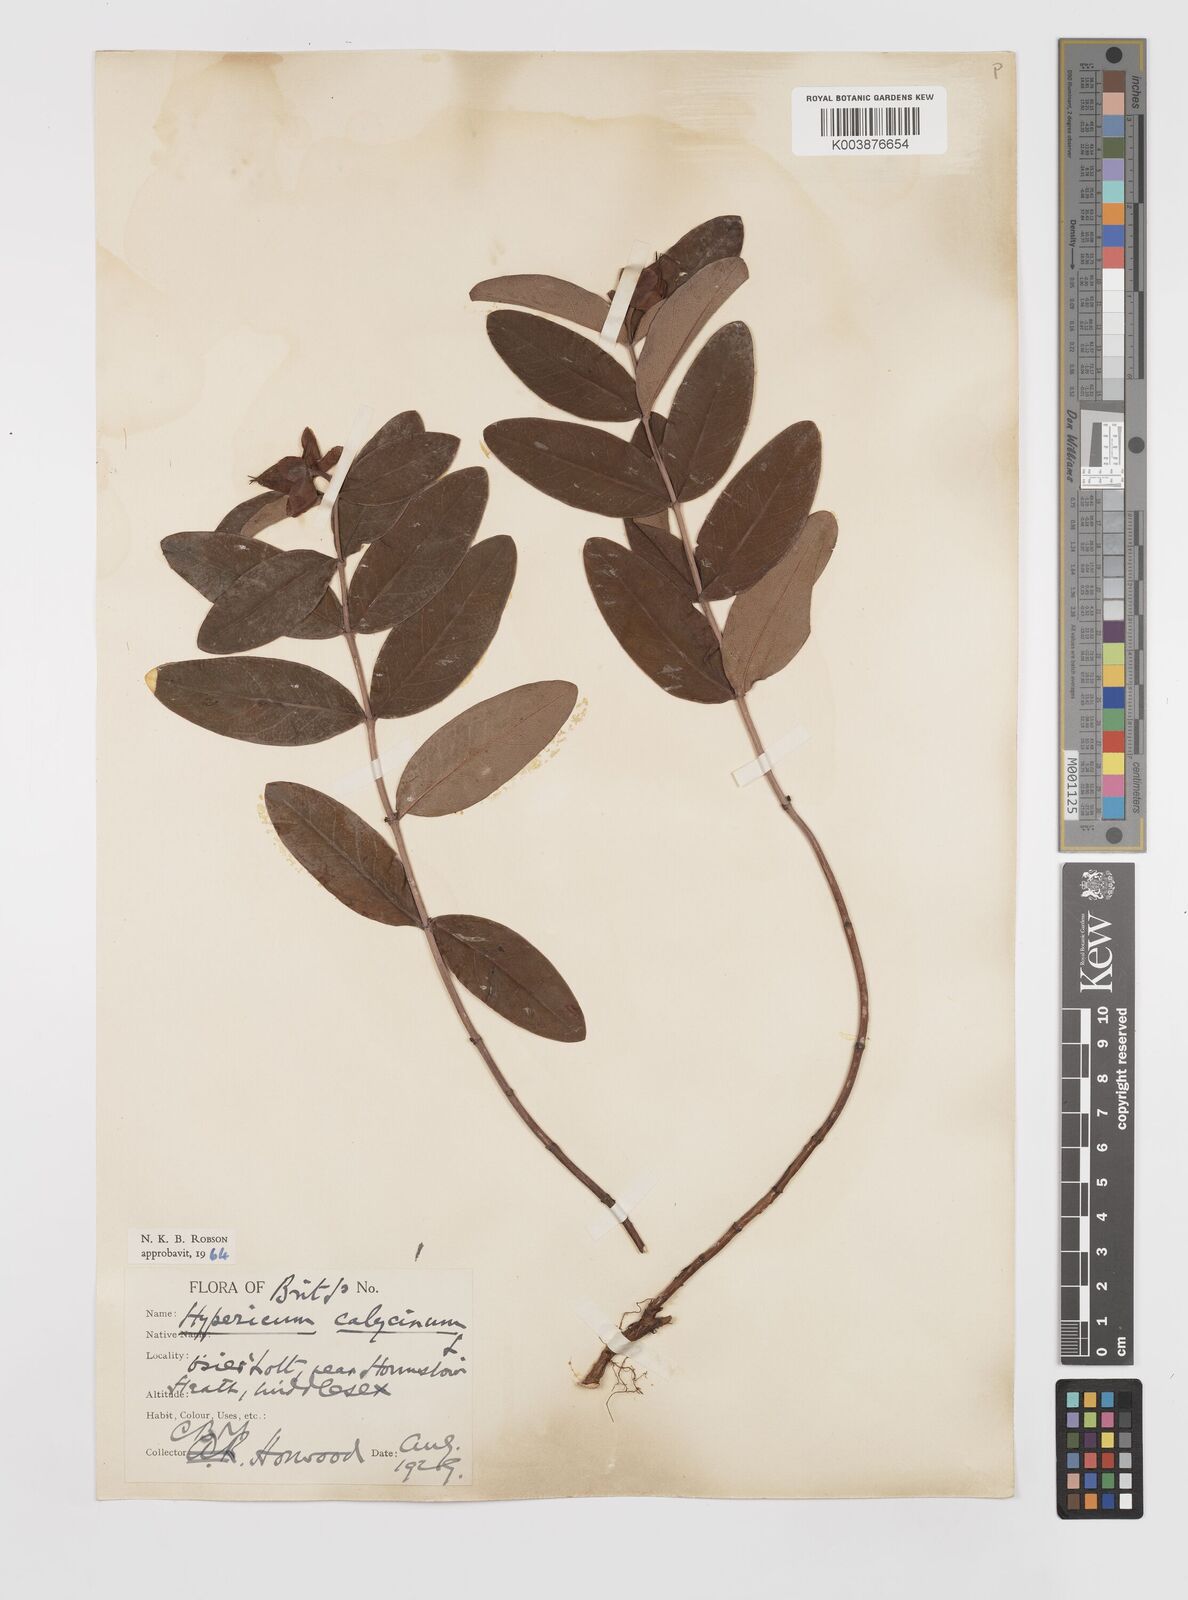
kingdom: Plantae
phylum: Tracheophyta
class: Magnoliopsida
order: Malpighiales
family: Hypericaceae
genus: Hypericum
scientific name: Hypericum calycinum
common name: Rose-of-sharon
